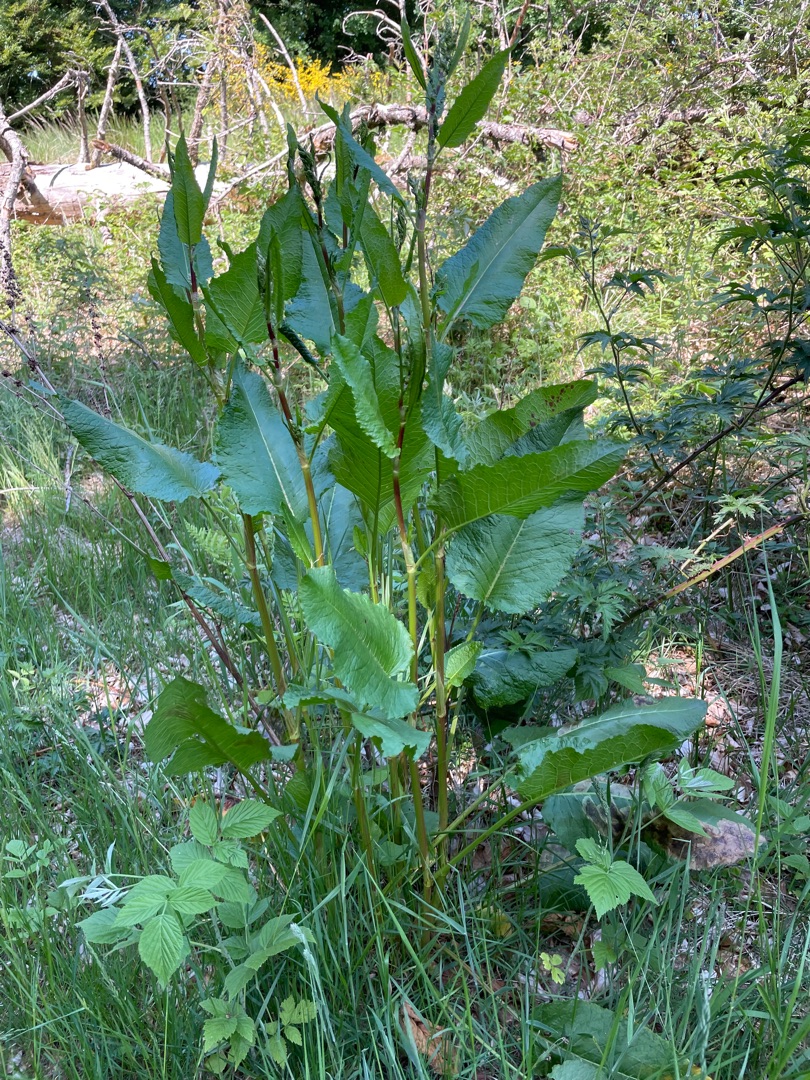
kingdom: Plantae
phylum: Tracheophyta
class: Magnoliopsida
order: Caryophyllales
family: Polygonaceae
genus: Rumex
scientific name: Rumex obtusifolius
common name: Butbladet skræppe
